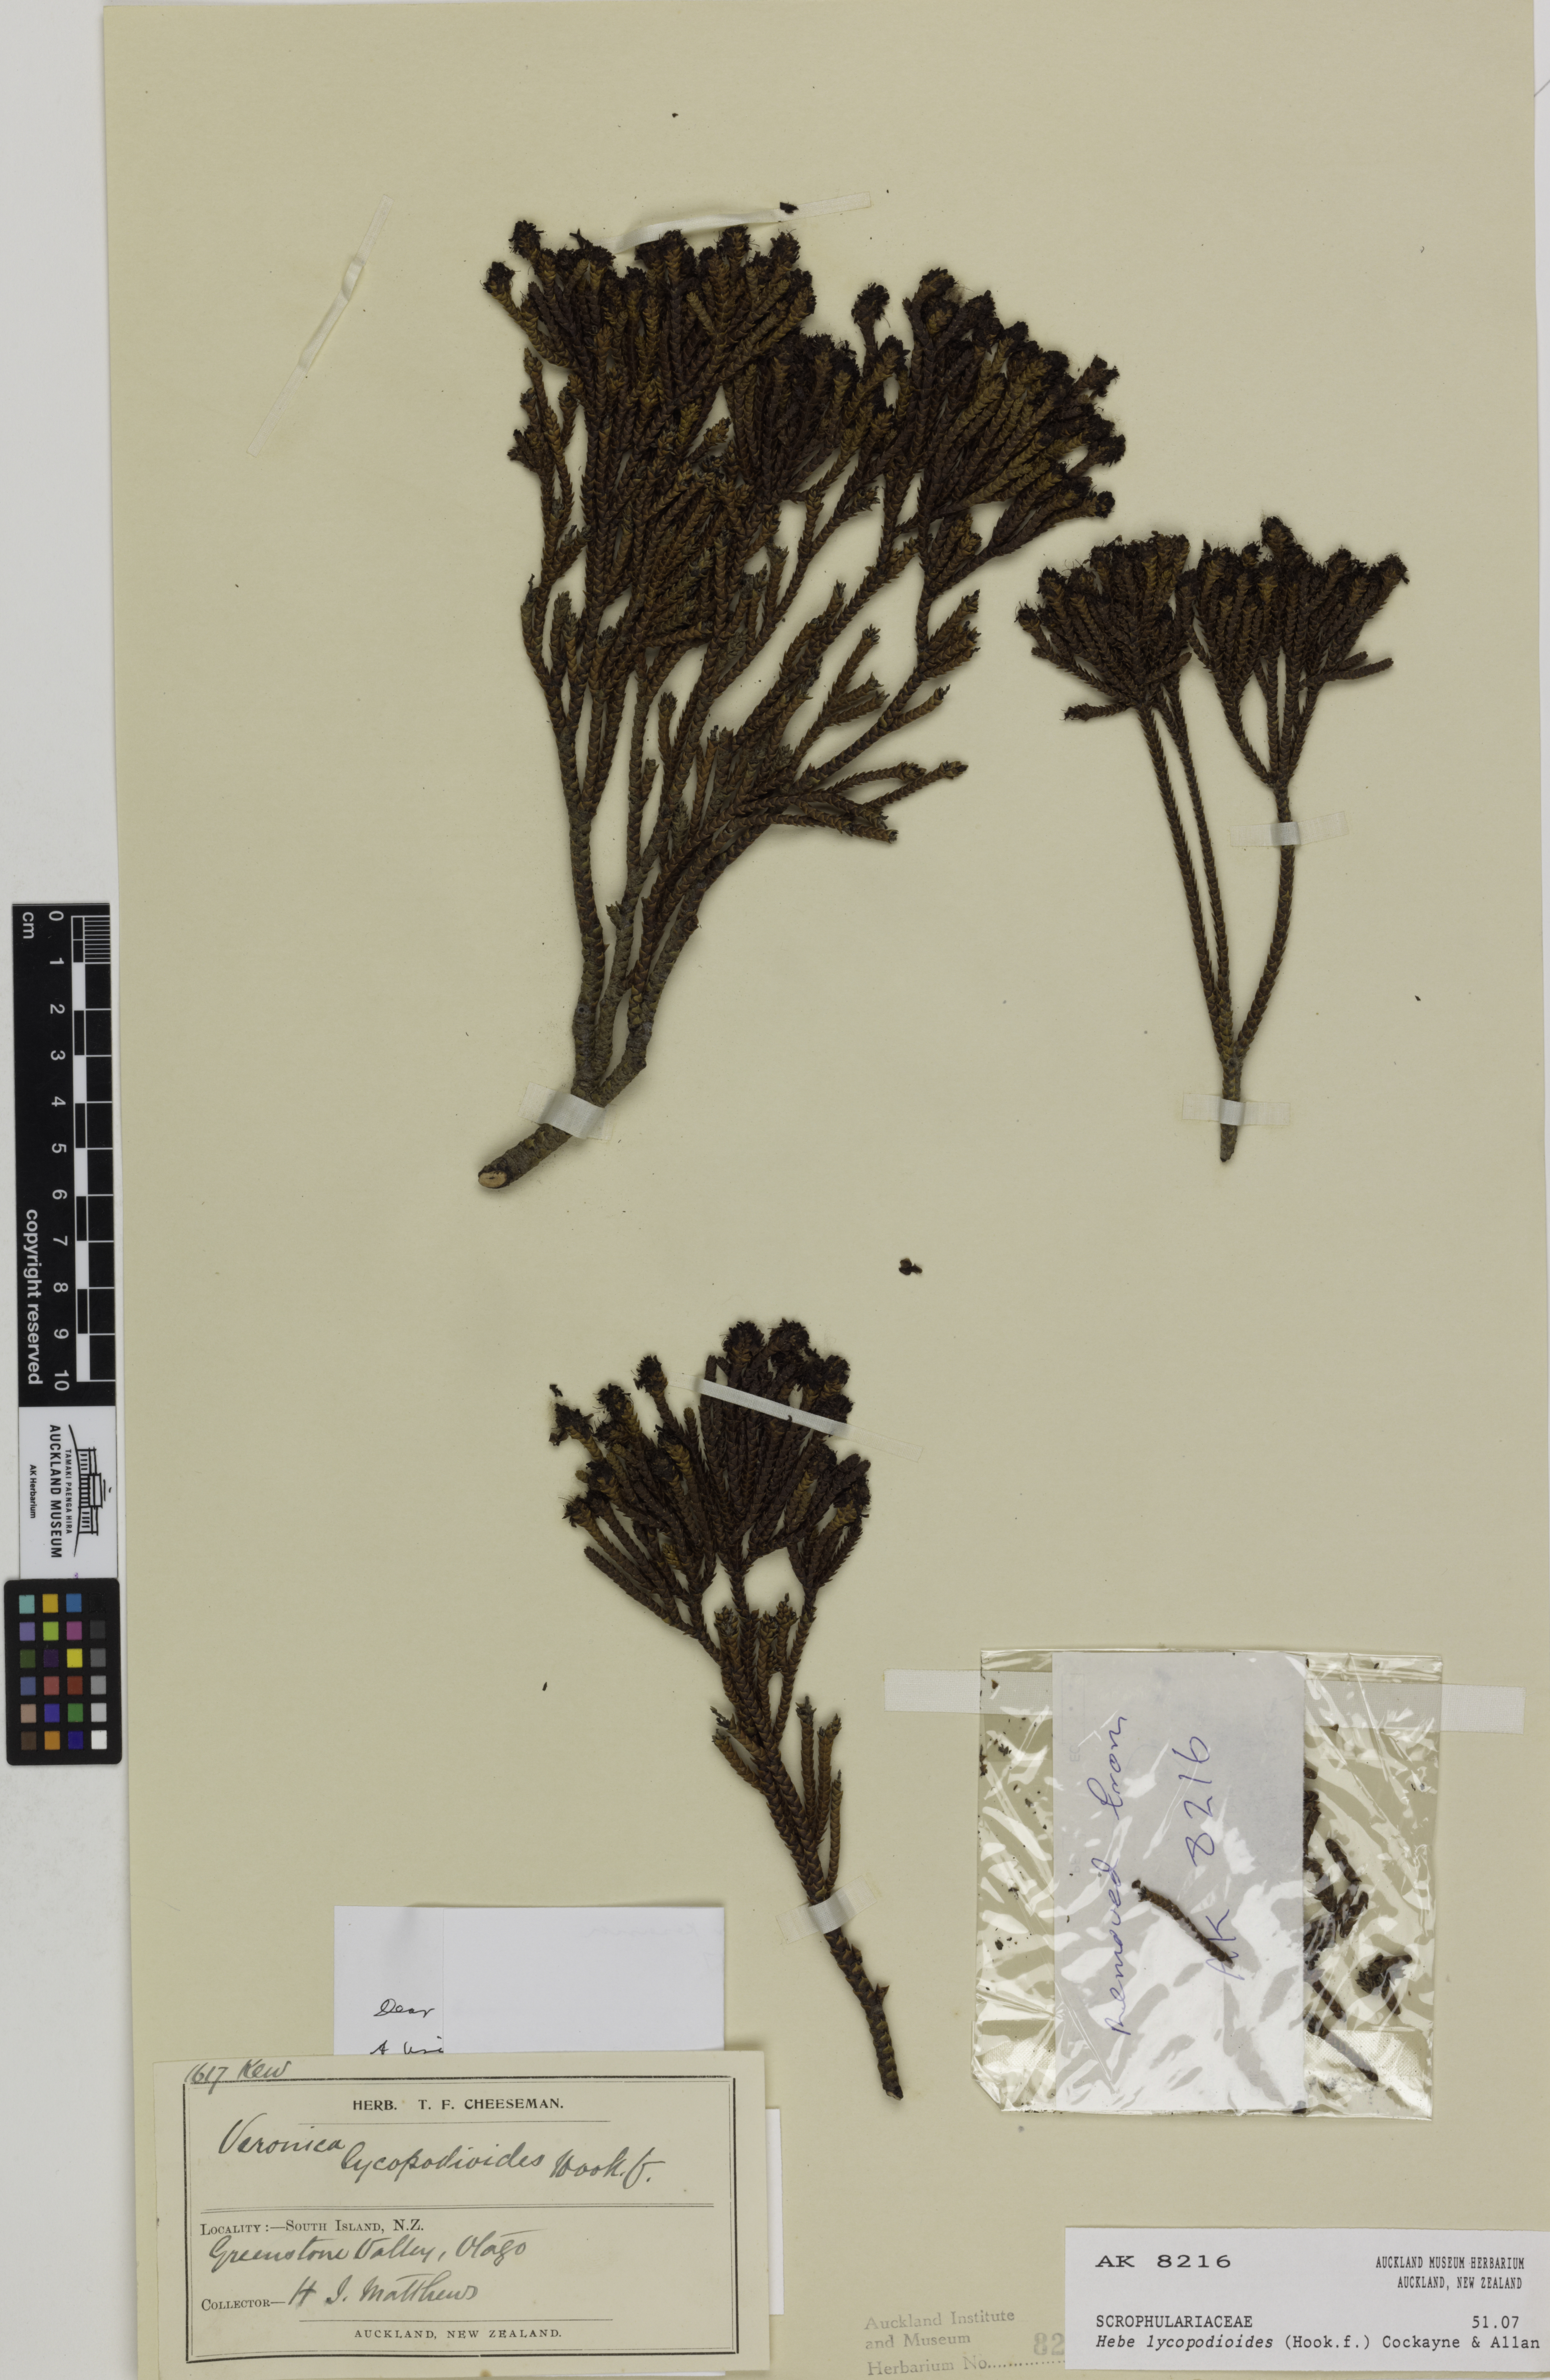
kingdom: Plantae
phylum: Tracheophyta
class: Magnoliopsida
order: Lamiales
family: Plantaginaceae
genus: Veronica
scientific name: Veronica lycopodioides
